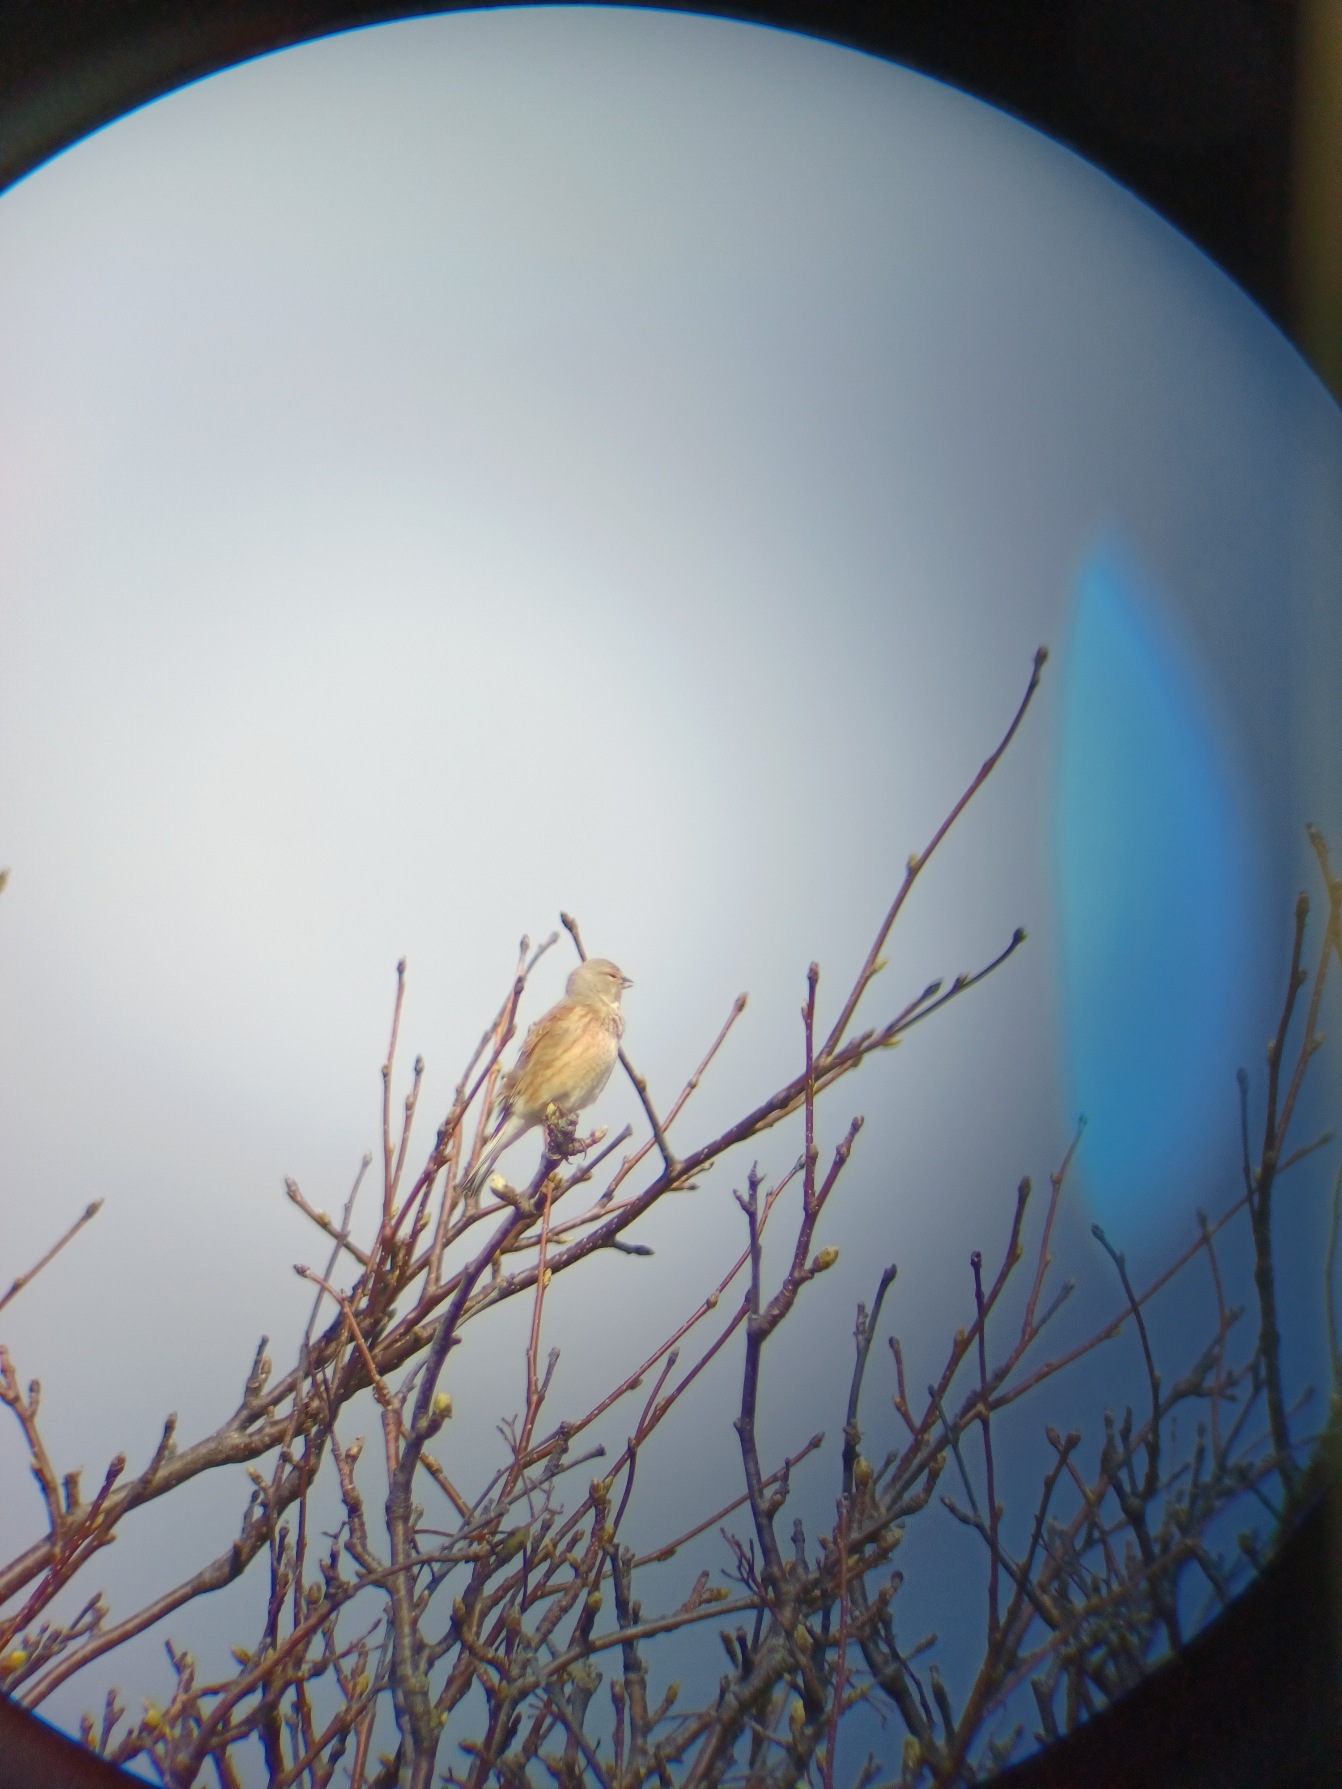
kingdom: Animalia
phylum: Chordata
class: Aves
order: Passeriformes
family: Fringillidae
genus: Linaria
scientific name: Linaria cannabina
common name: Tornirisk
